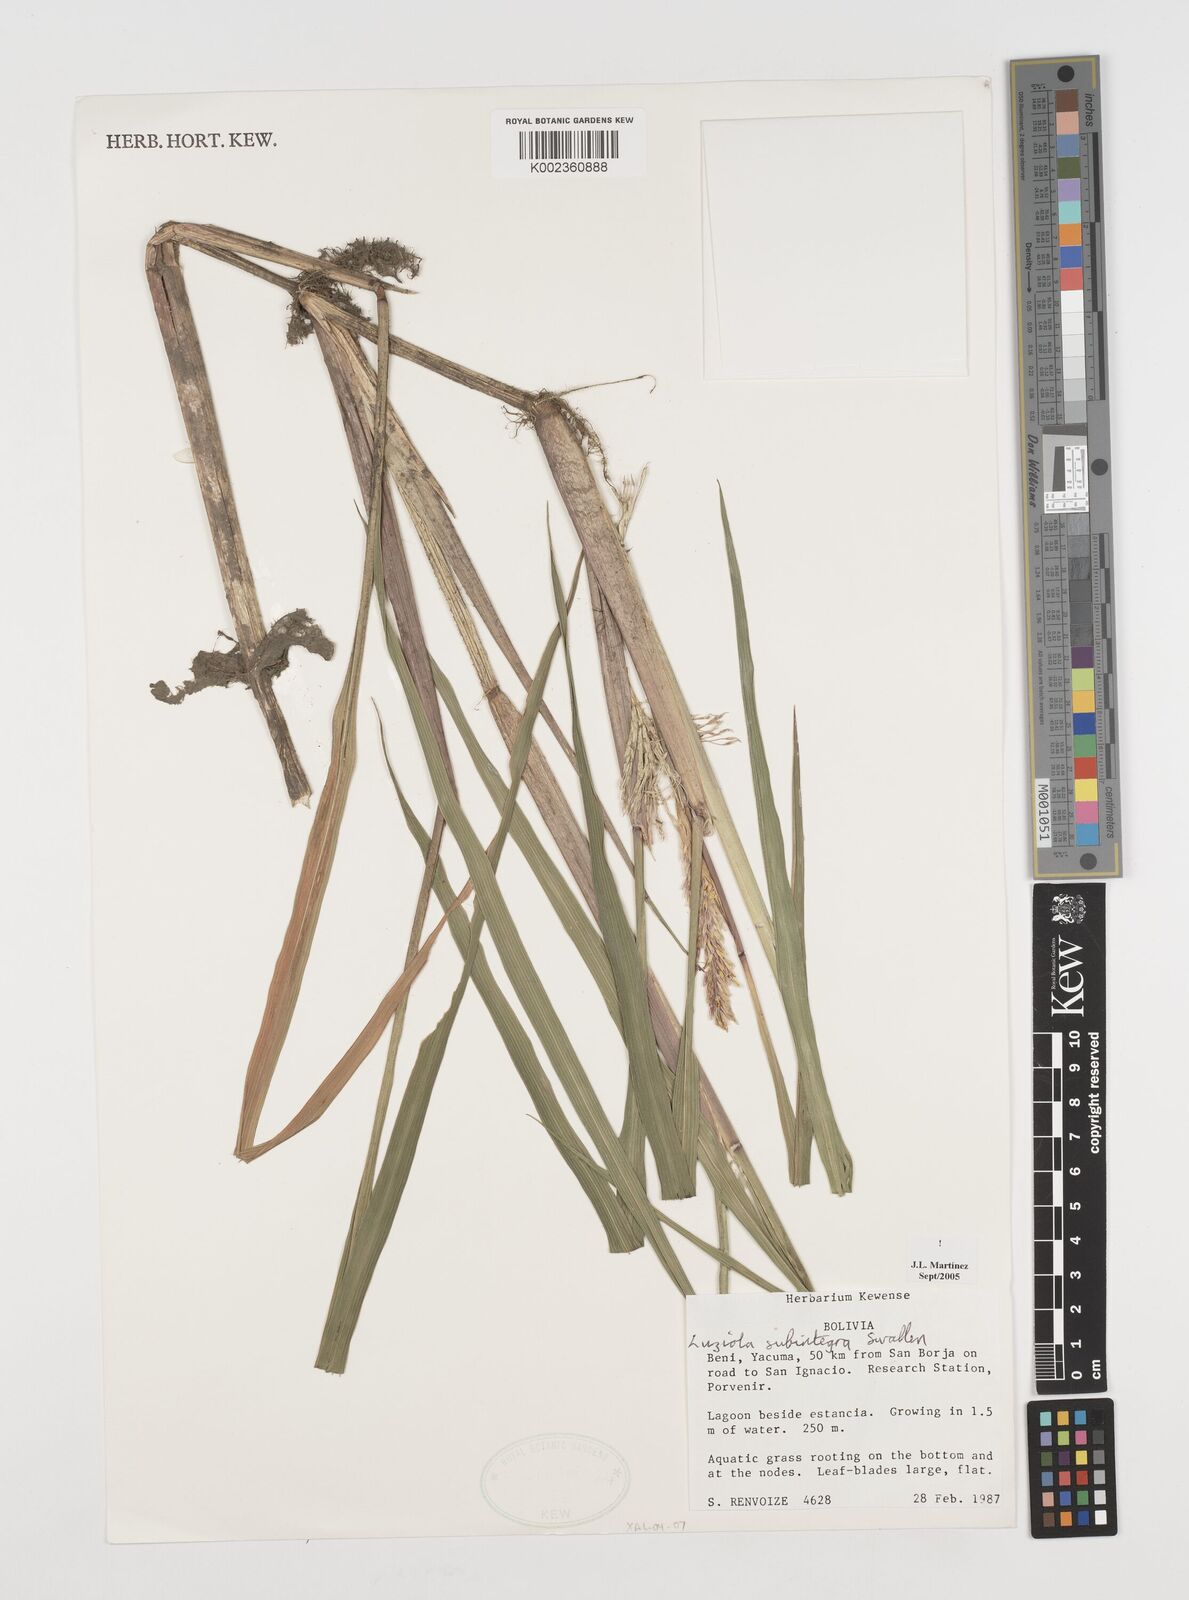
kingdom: Plantae
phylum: Tracheophyta
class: Liliopsida
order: Poales
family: Poaceae
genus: Luziola
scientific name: Luziola subintegra
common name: Large watergrass
